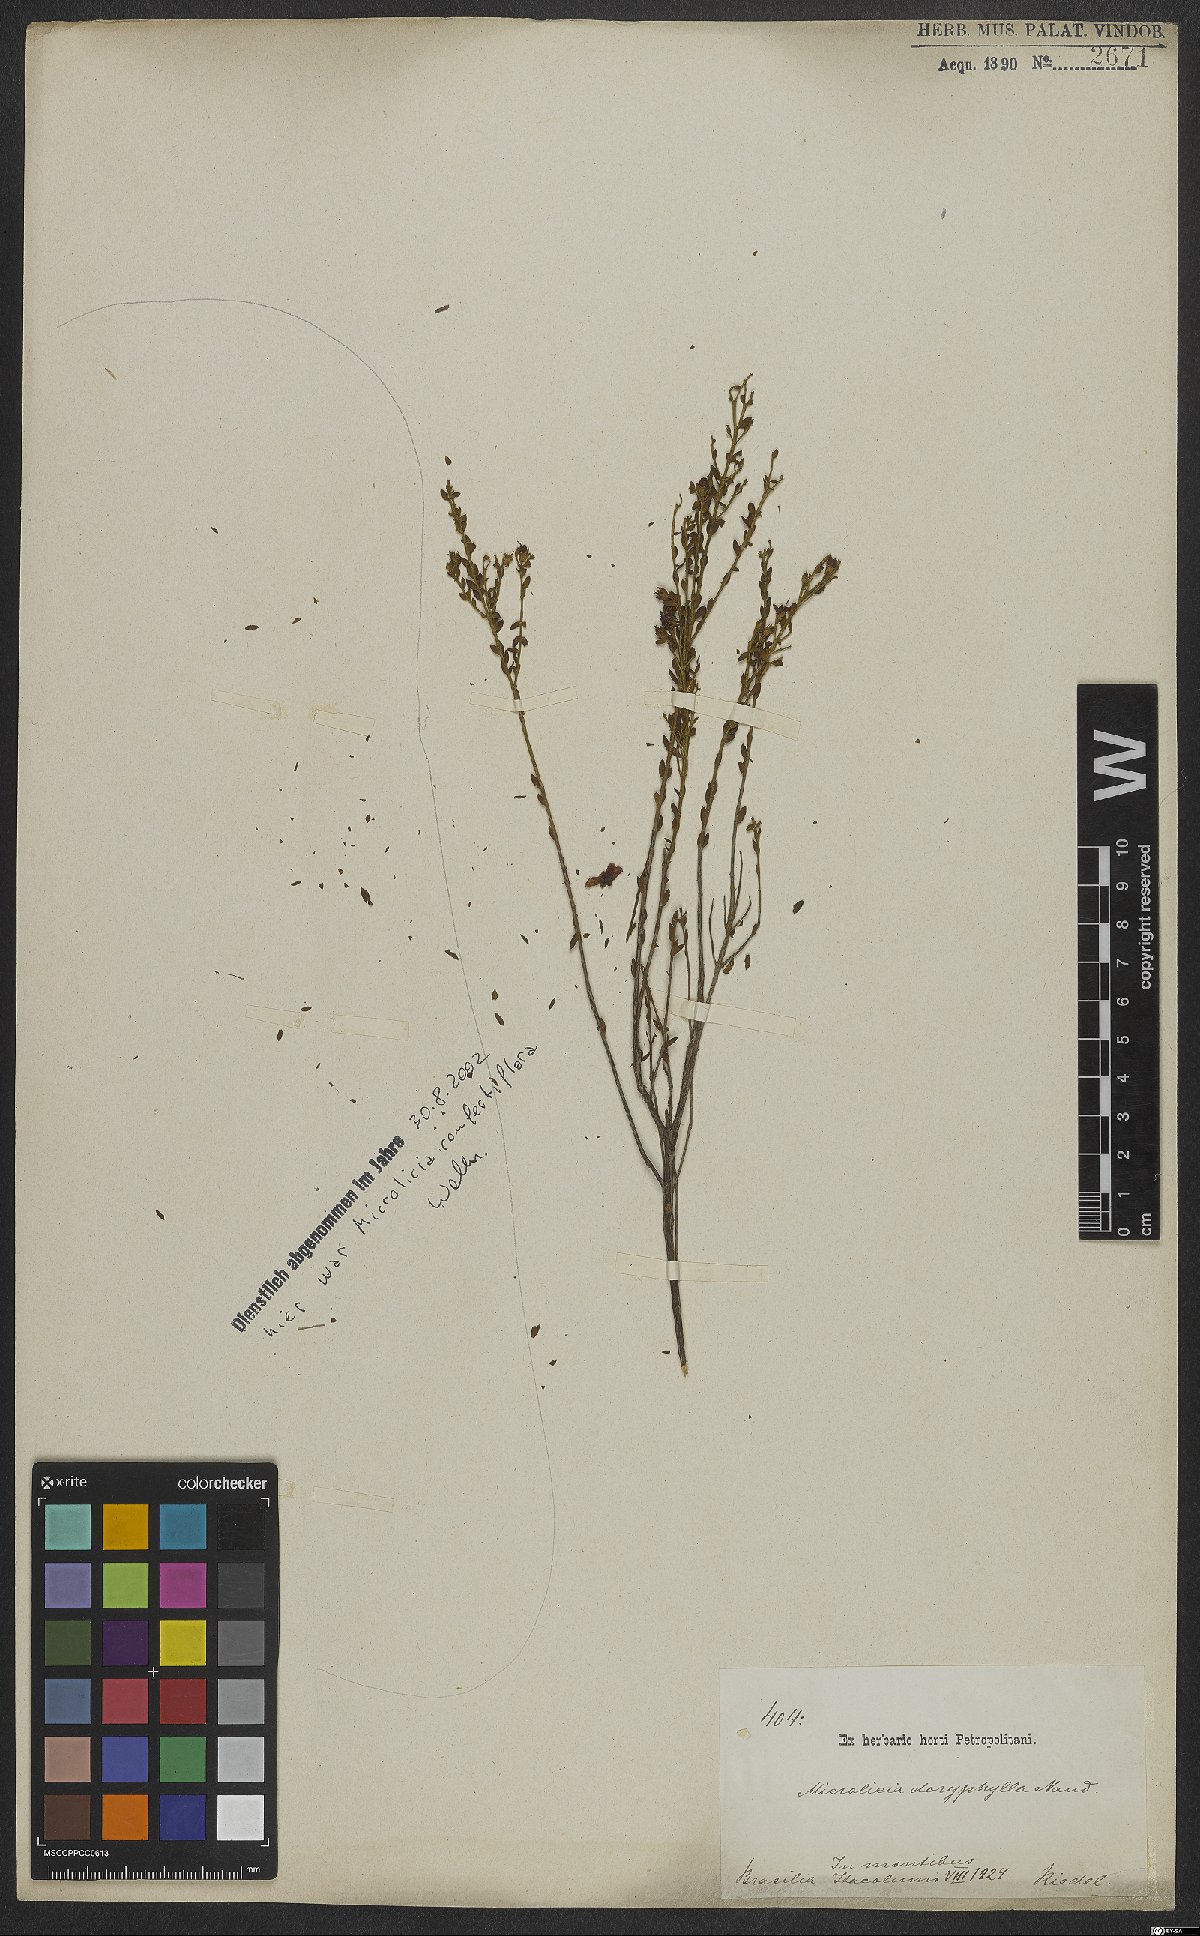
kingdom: Plantae
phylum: Tracheophyta
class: Magnoliopsida
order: Myrtales
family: Melastomataceae
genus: Microlicia
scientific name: Microlicia doryphylla
